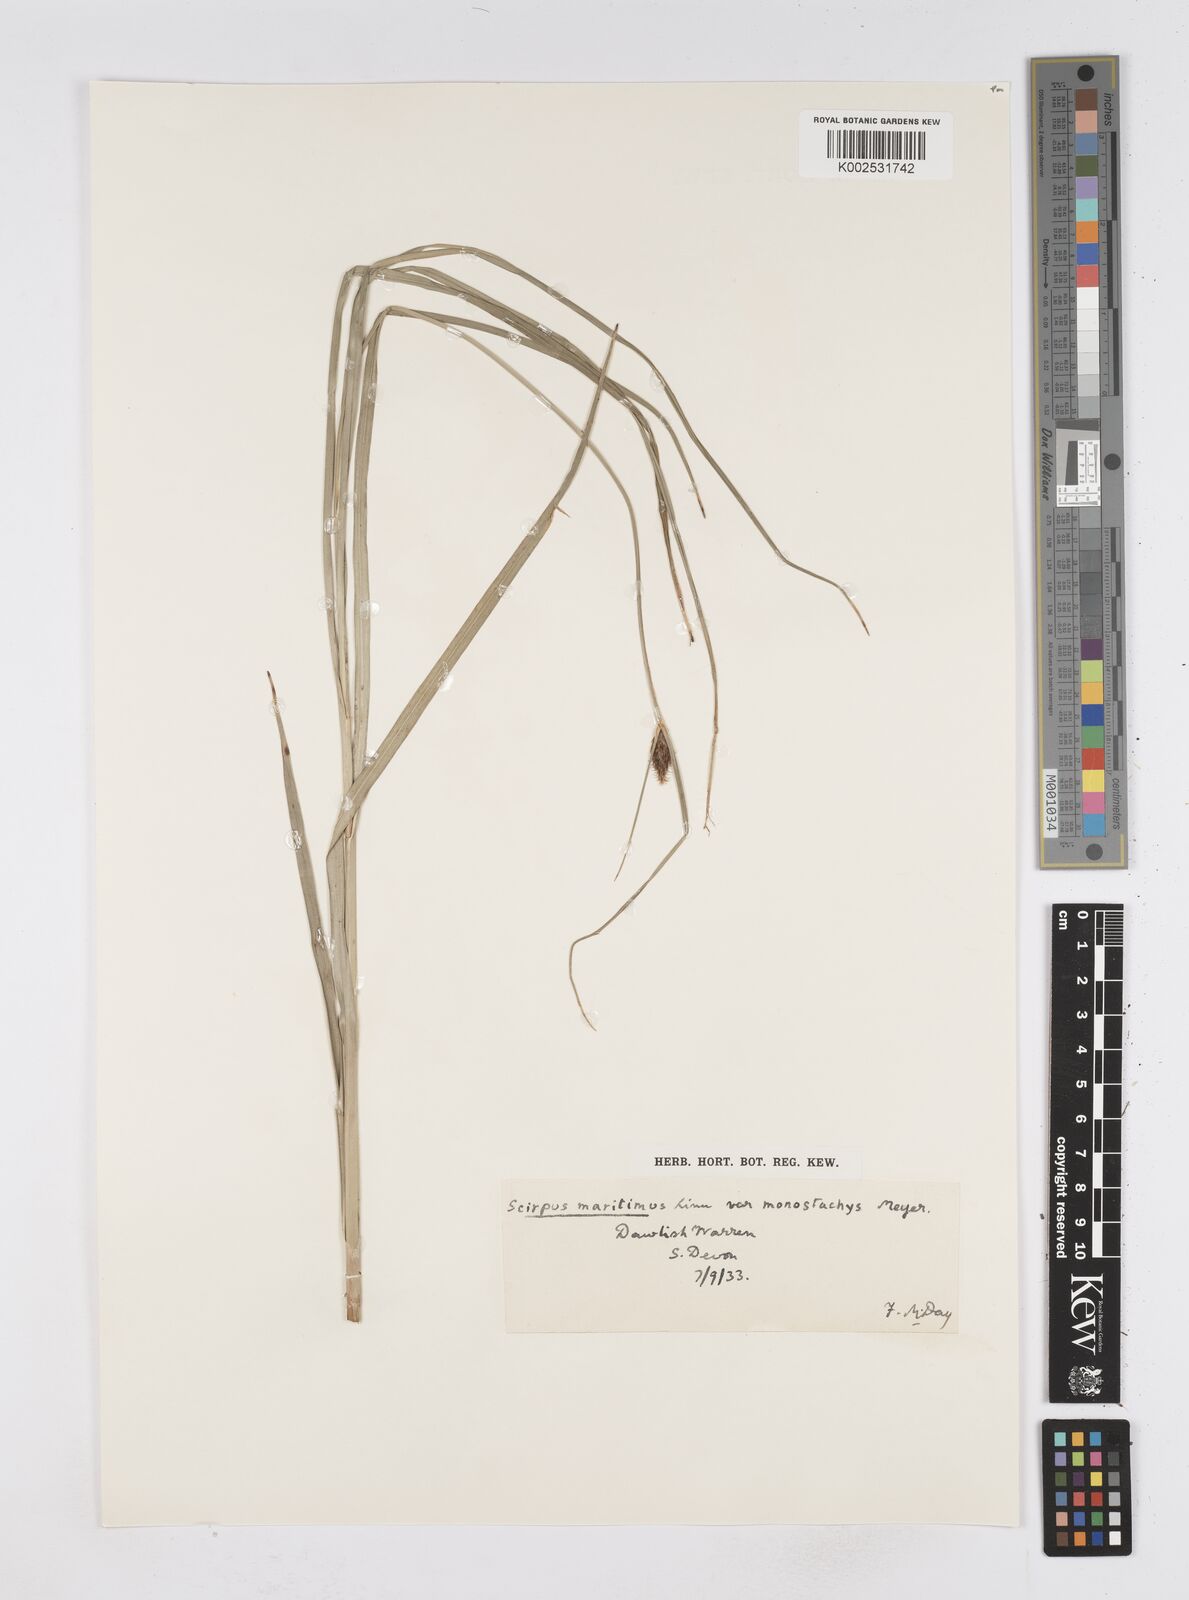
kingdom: Plantae
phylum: Tracheophyta
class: Liliopsida
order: Poales
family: Cyperaceae
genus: Bolboschoenus
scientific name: Bolboschoenus maritimus
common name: Sea club-rush
